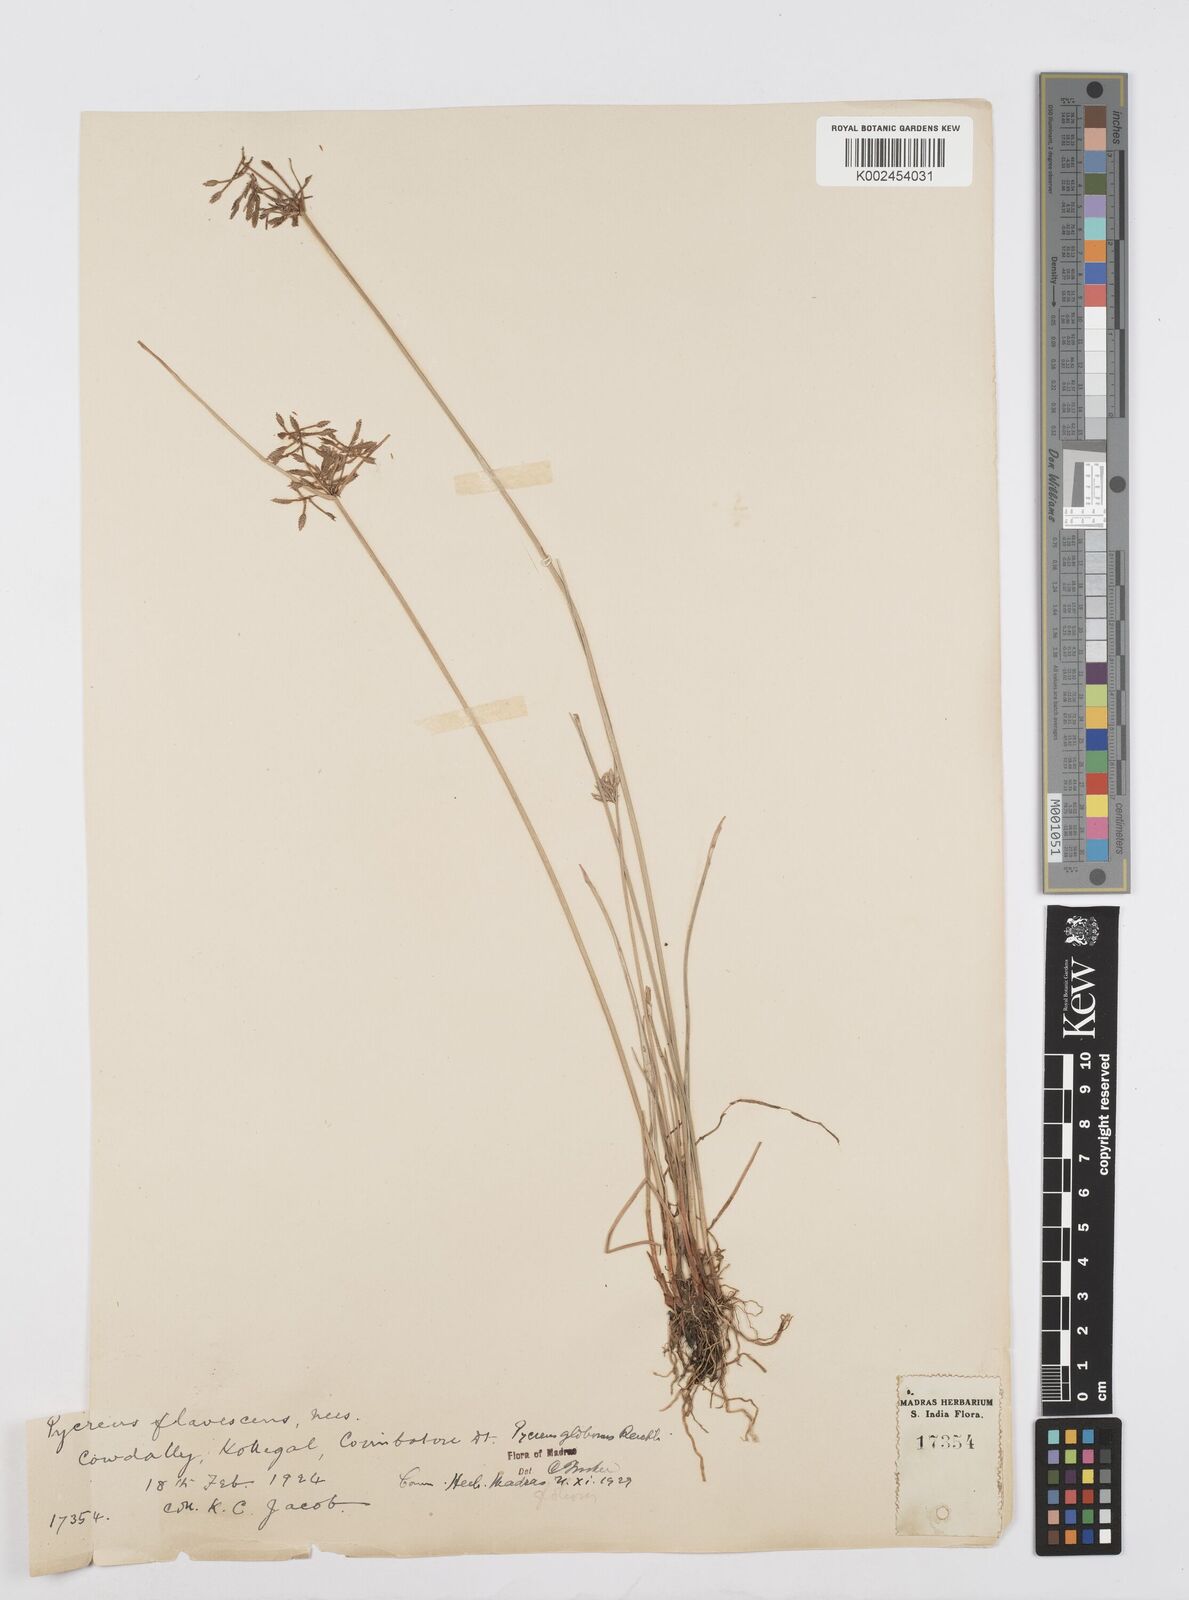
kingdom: Plantae
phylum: Tracheophyta
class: Liliopsida
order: Poales
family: Cyperaceae
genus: Cyperus
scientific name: Cyperus flavidus
